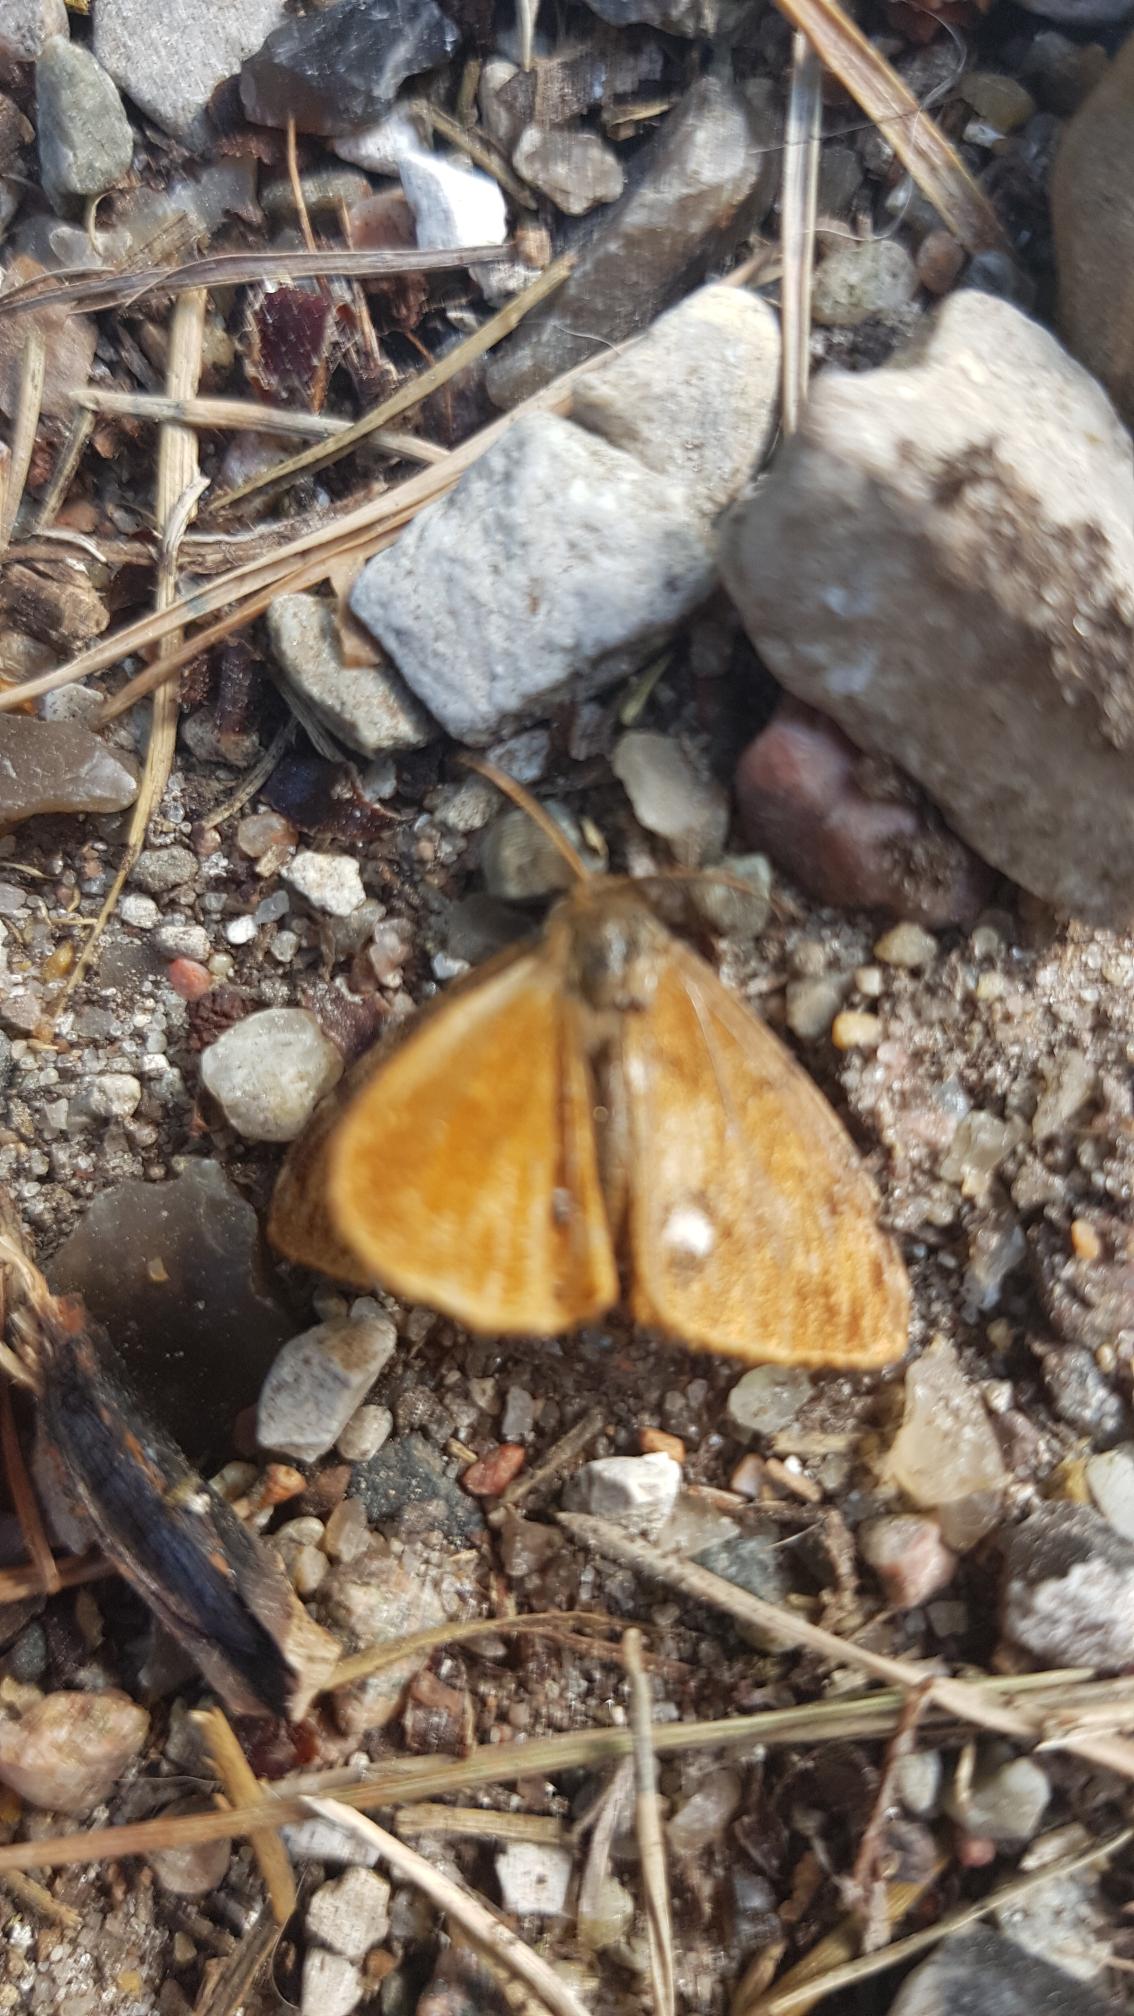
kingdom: Animalia
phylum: Arthropoda
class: Insecta
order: Lepidoptera
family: Erebidae
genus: Orgyia
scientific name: Orgyia antiqua
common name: Lille penselspinder
